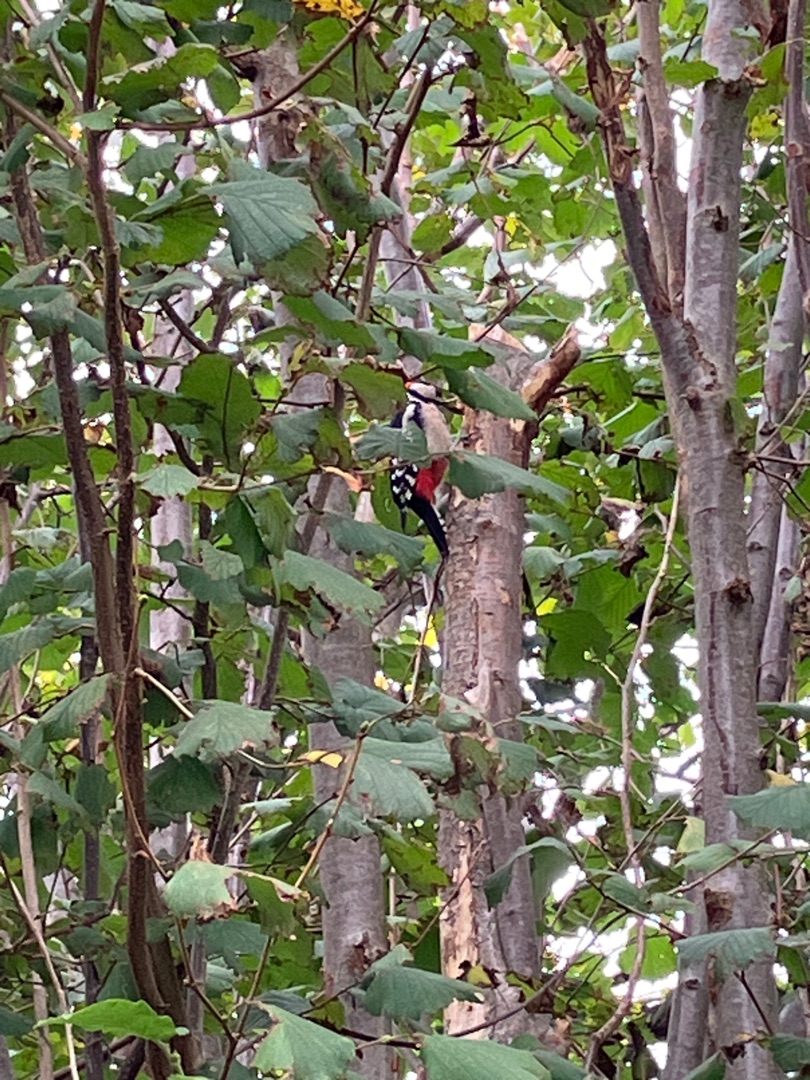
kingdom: Animalia
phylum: Chordata
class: Aves
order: Piciformes
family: Picidae
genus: Dendrocopos
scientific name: Dendrocopos major
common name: Stor flagspætte
